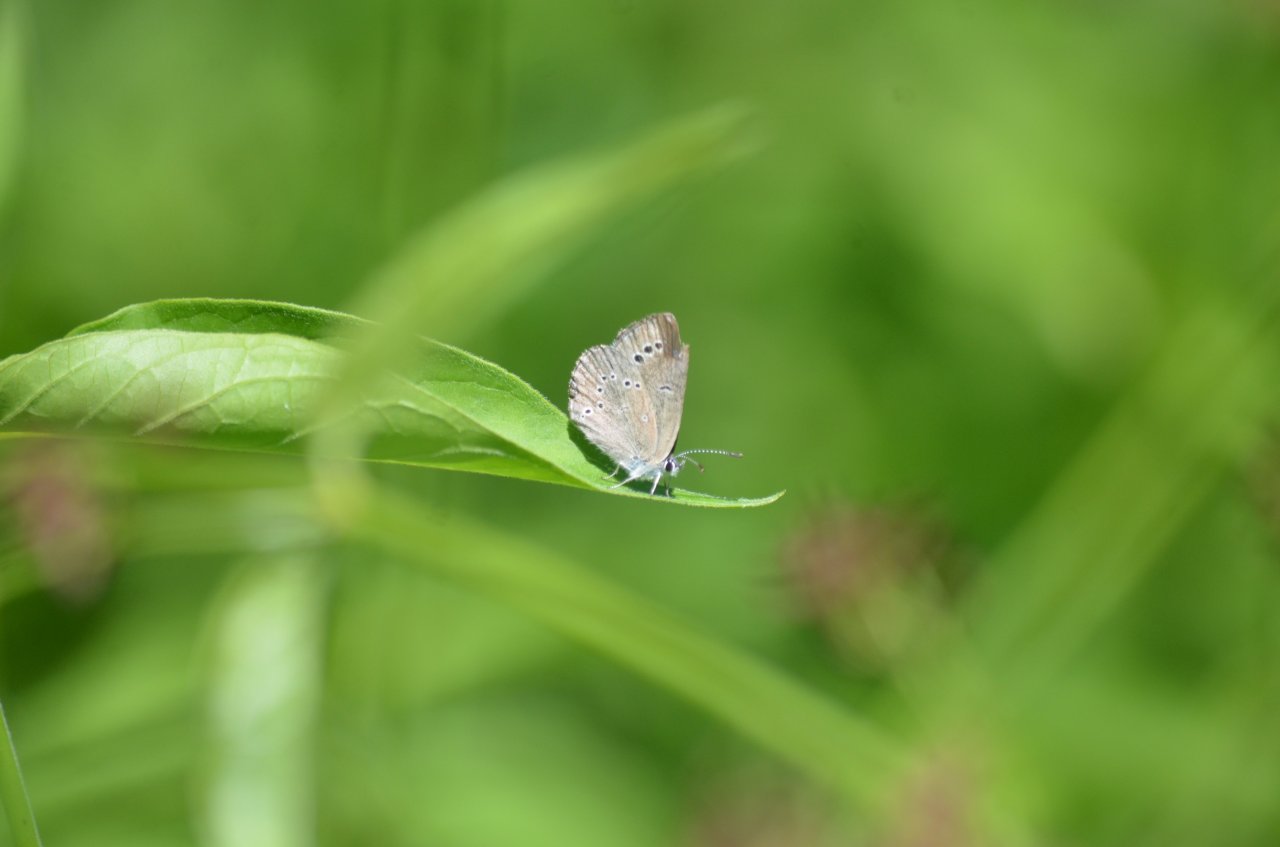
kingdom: Animalia
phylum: Arthropoda
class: Insecta
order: Lepidoptera
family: Lycaenidae
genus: Glaucopsyche
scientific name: Glaucopsyche lygdamus
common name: Silvery Blue
